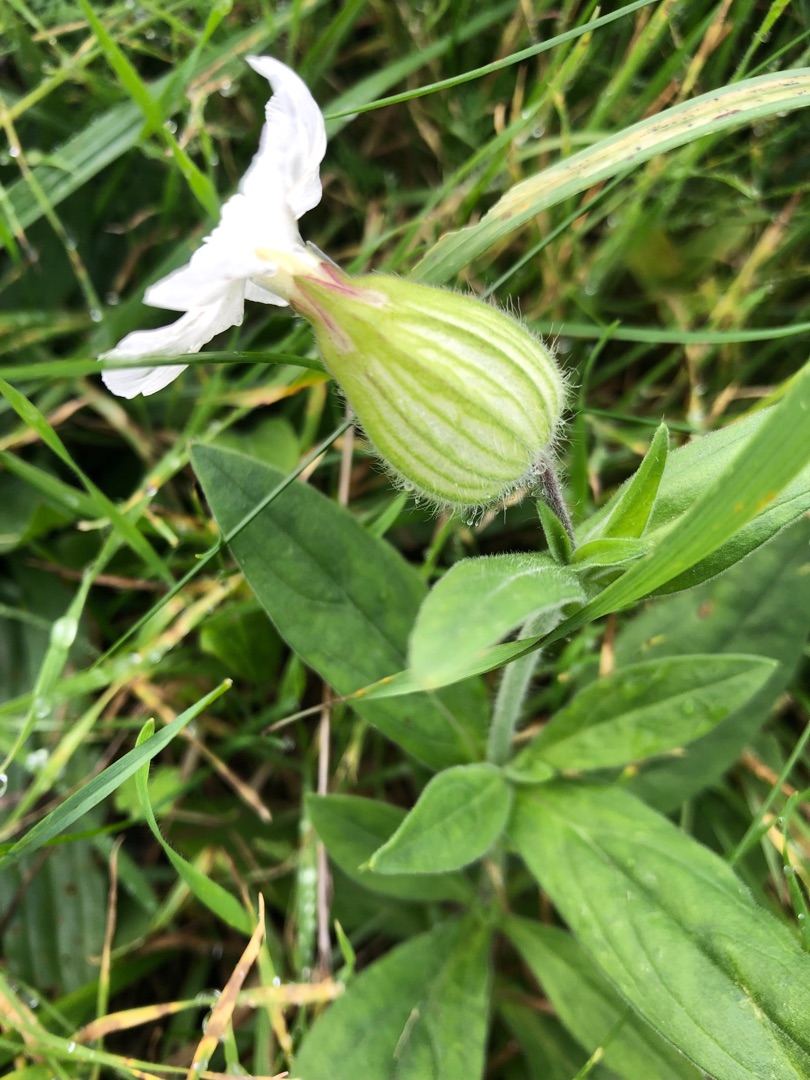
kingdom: Plantae
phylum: Tracheophyta
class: Magnoliopsida
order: Caryophyllales
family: Caryophyllaceae
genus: Silene
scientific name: Silene latifolia
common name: Aftenpragtstjerne
